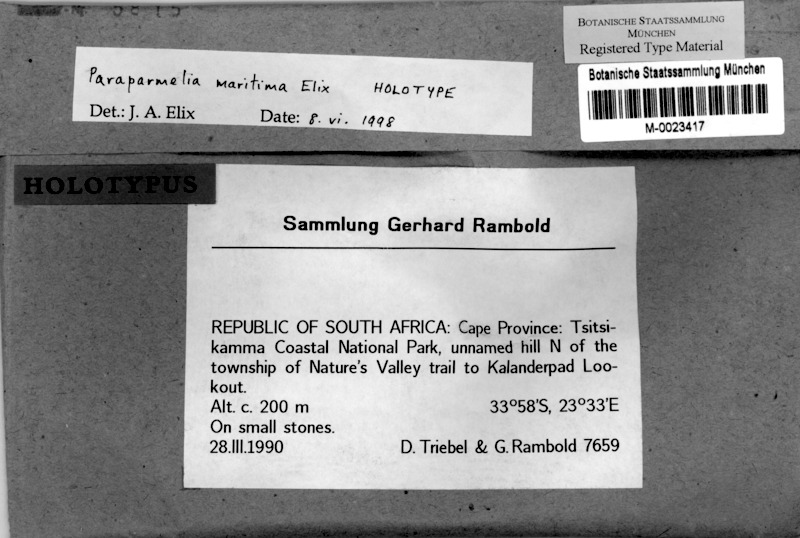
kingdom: Fungi
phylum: Ascomycota
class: Lecanoromycetes
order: Lecanorales
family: Parmeliaceae
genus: Xanthoparmelia
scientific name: Xanthoparmelia maritima
